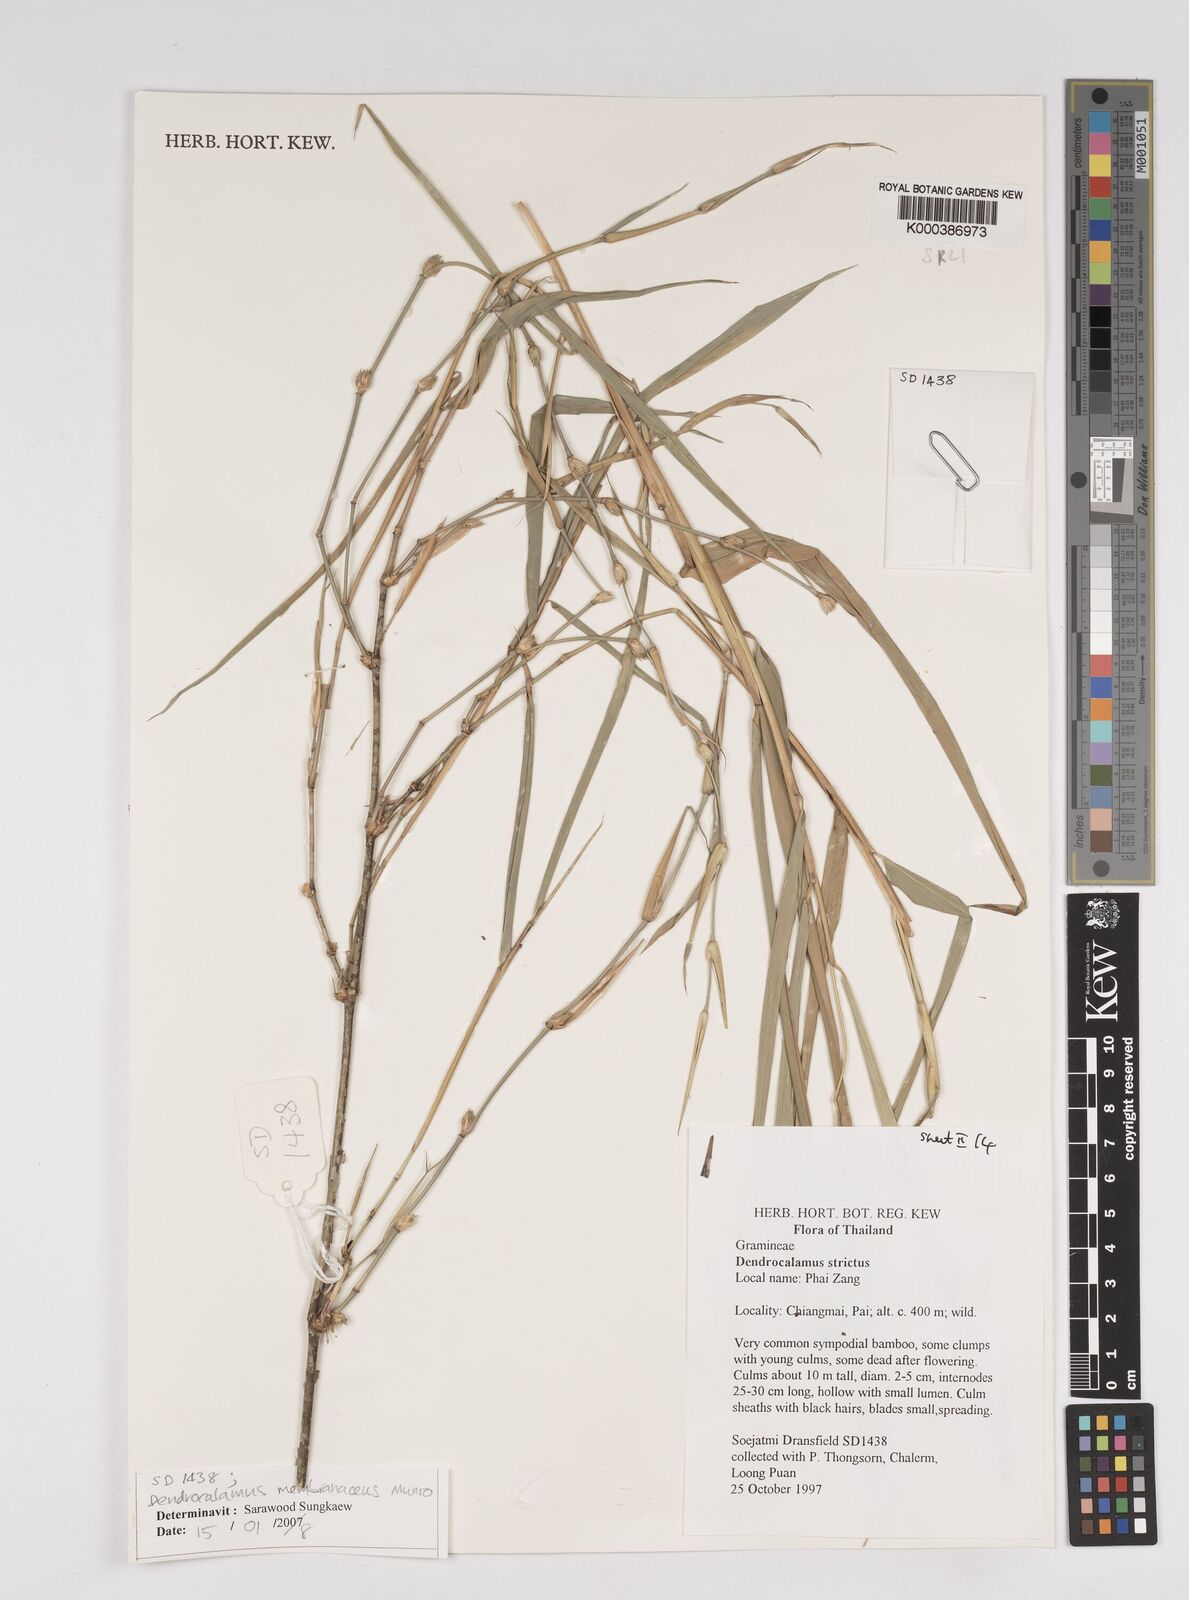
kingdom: Plantae
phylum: Tracheophyta
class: Liliopsida
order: Poales
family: Poaceae
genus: Dendrocalamus
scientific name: Dendrocalamus membranaceus
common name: White bamboo
